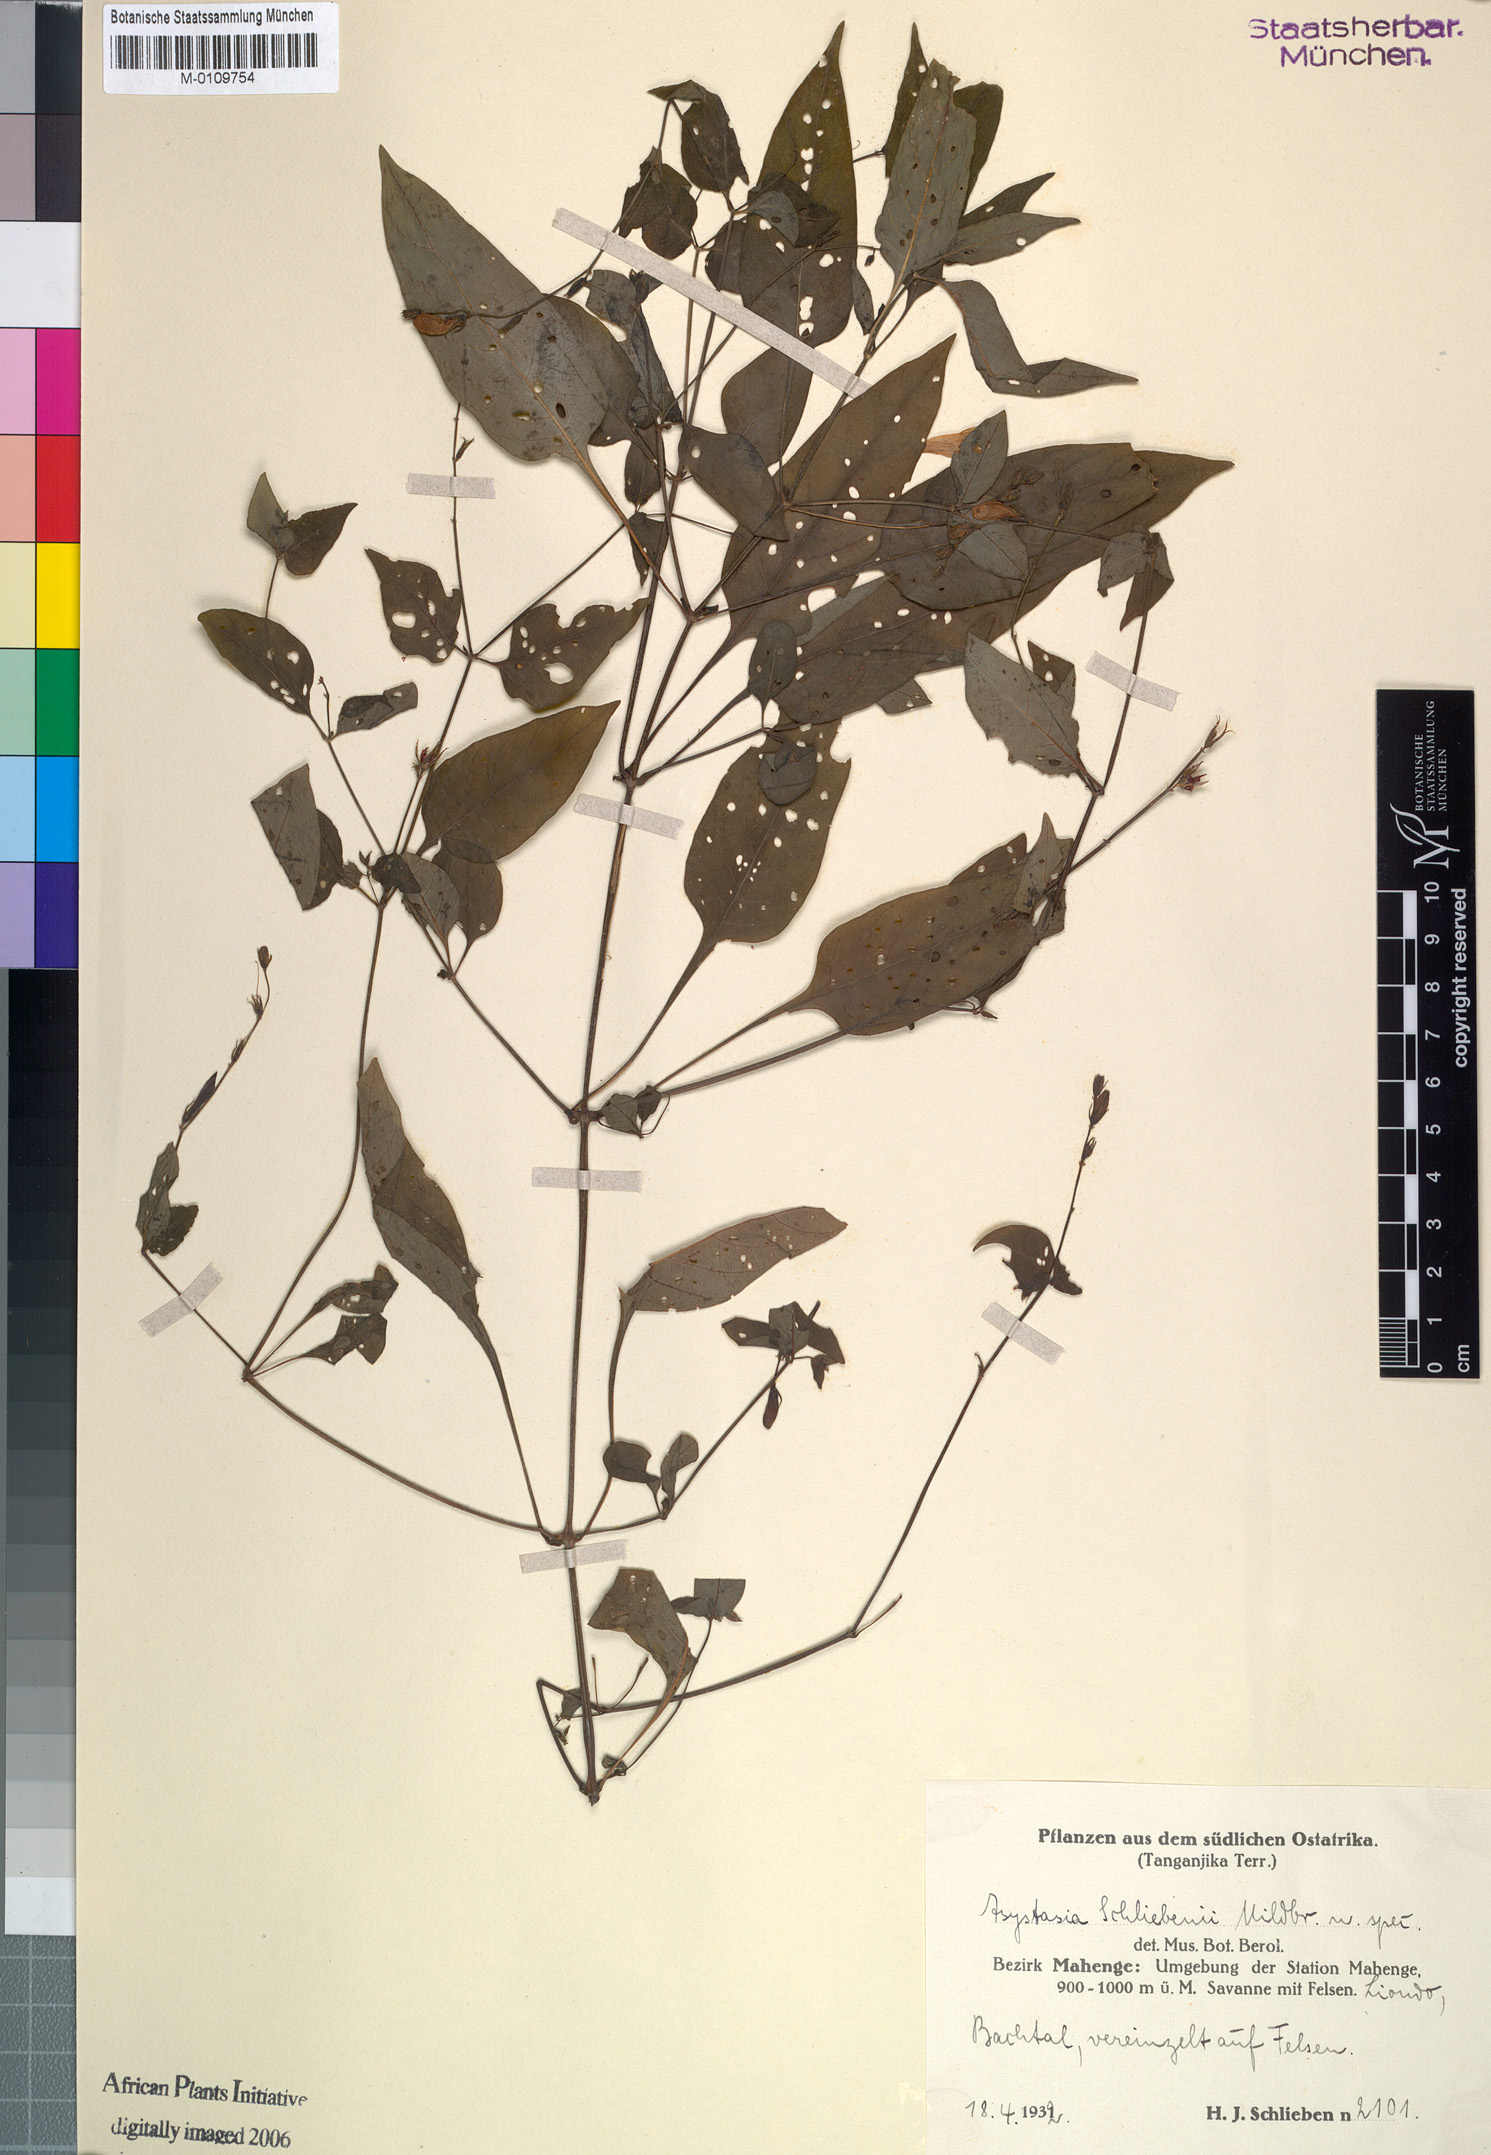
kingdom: Plantae
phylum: Tracheophyta
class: Magnoliopsida
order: Lamiales
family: Acanthaceae
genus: Asystasia
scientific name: Asystasia schliebenii
